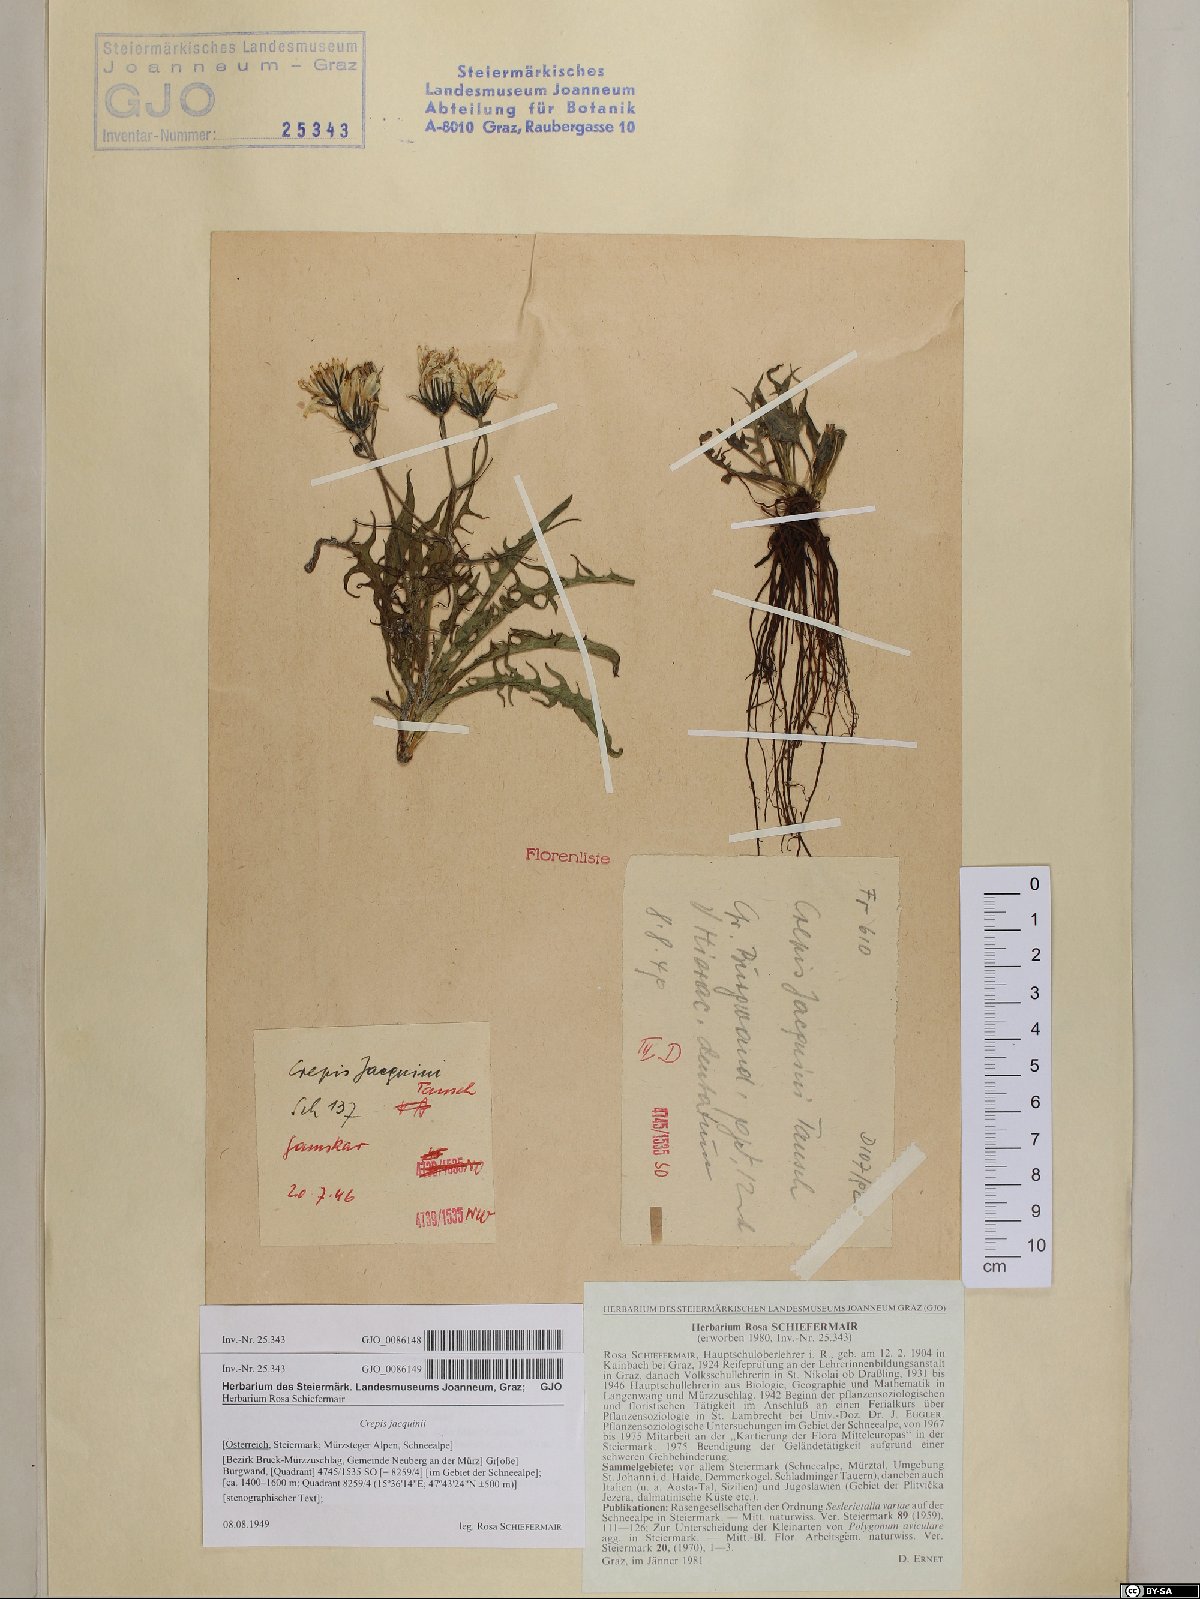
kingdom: Plantae
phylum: Tracheophyta
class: Magnoliopsida
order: Asterales
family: Asteraceae
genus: Crepis
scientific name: Crepis jacquinii
